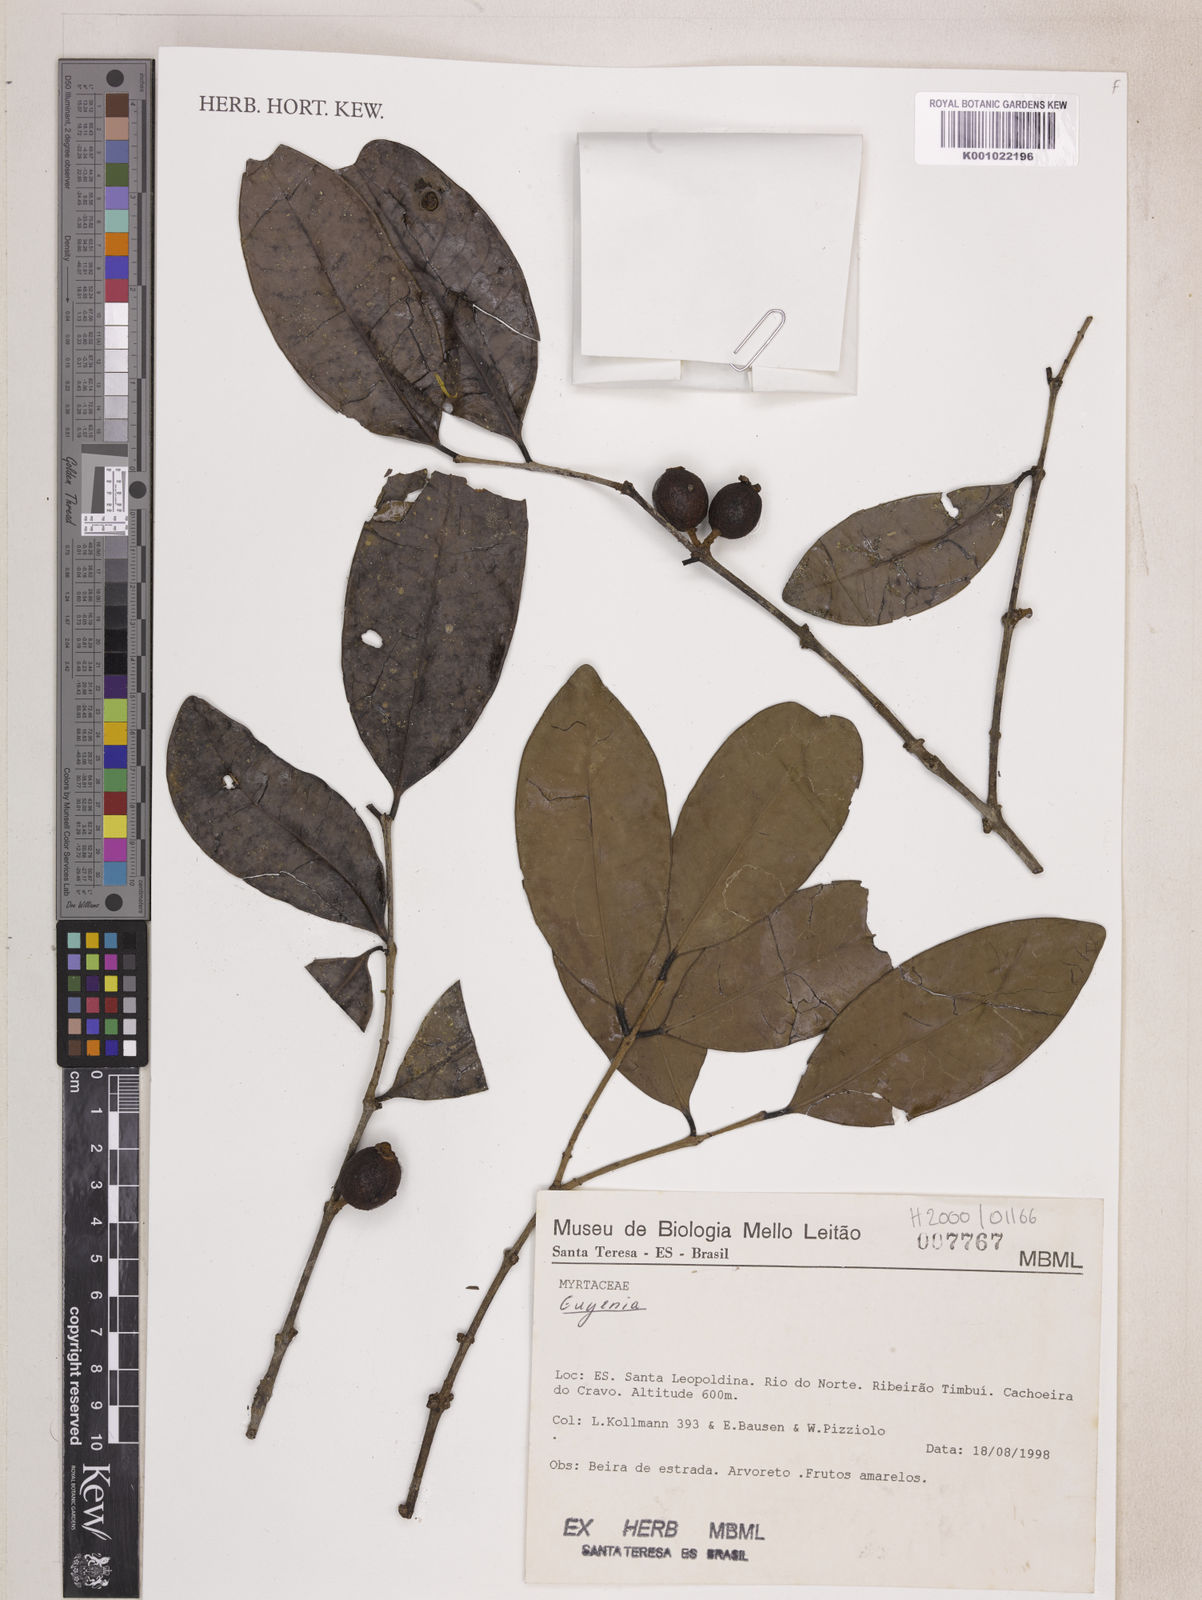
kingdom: Plantae
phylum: Tracheophyta
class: Magnoliopsida
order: Myrtales
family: Myrtaceae
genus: Eugenia
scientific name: Eugenia melanogyna
